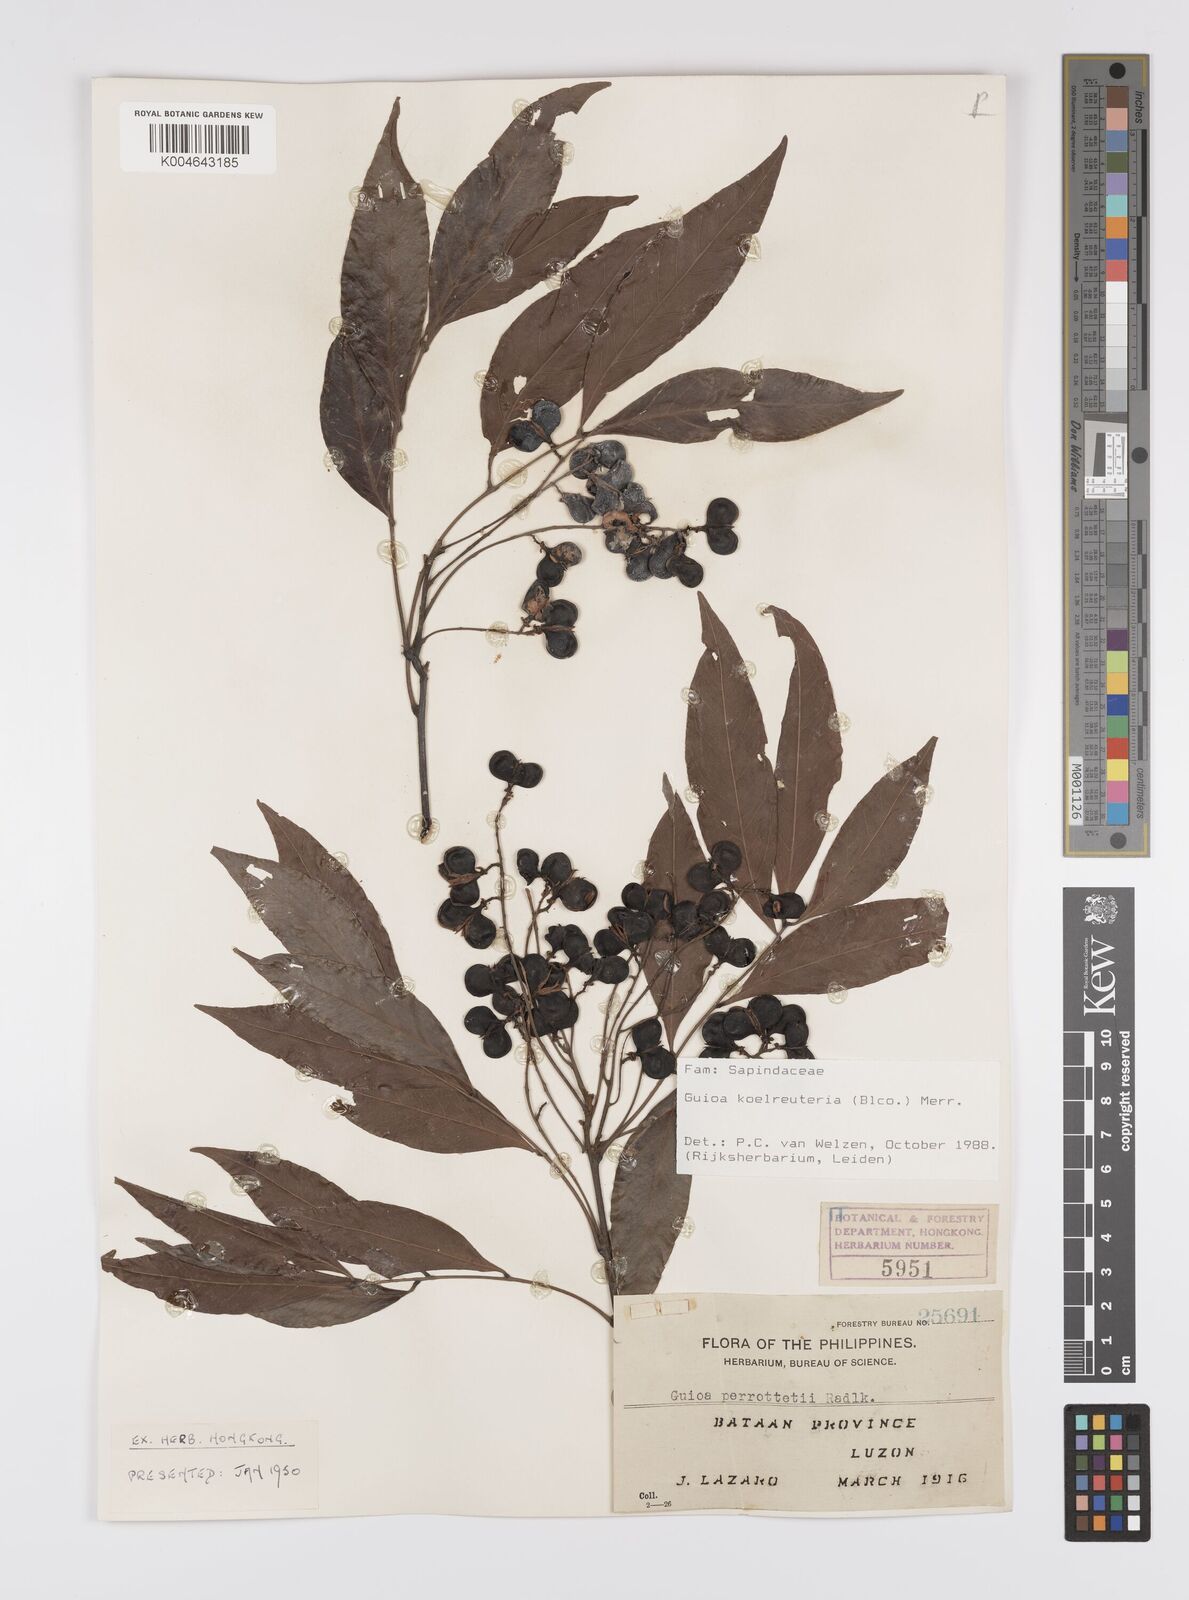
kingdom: Plantae
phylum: Tracheophyta
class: Magnoliopsida
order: Sapindales
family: Sapindaceae
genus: Guioa
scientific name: Guioa koelreuteria
